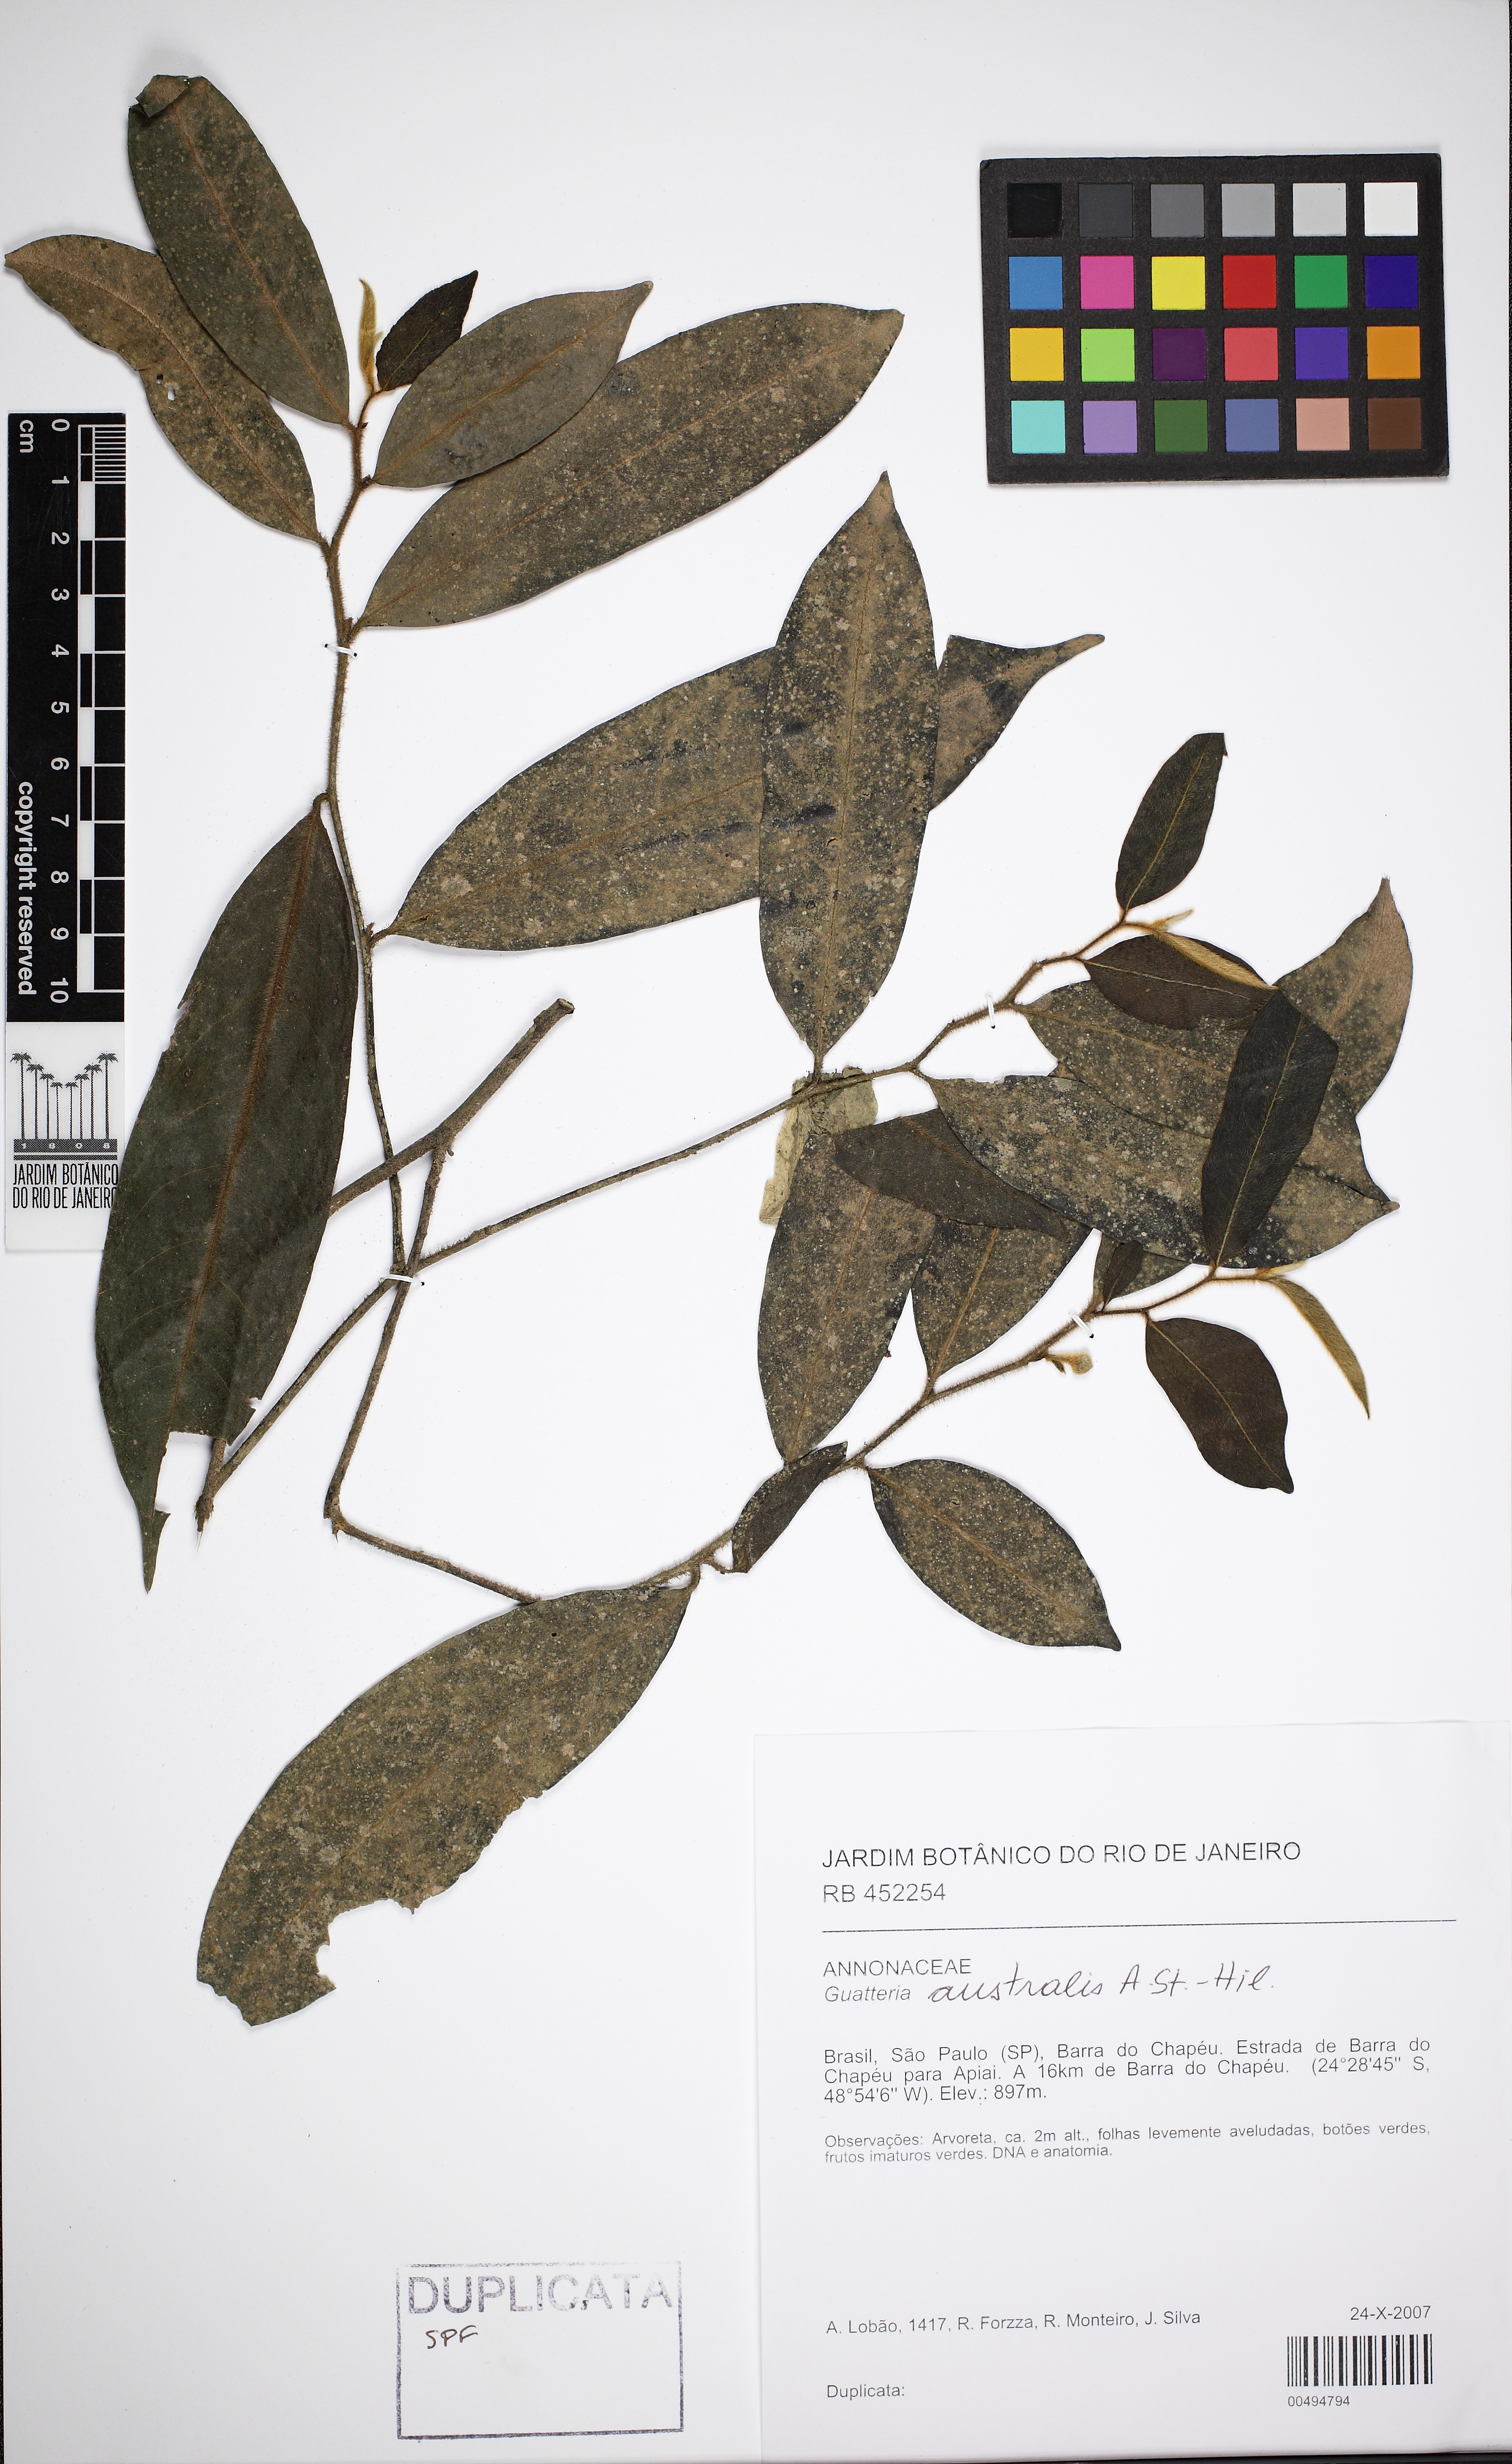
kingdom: Plantae
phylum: Tracheophyta
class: Magnoliopsida
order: Lamiales
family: Acanthaceae
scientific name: Acanthaceae
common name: Acanthaceae
